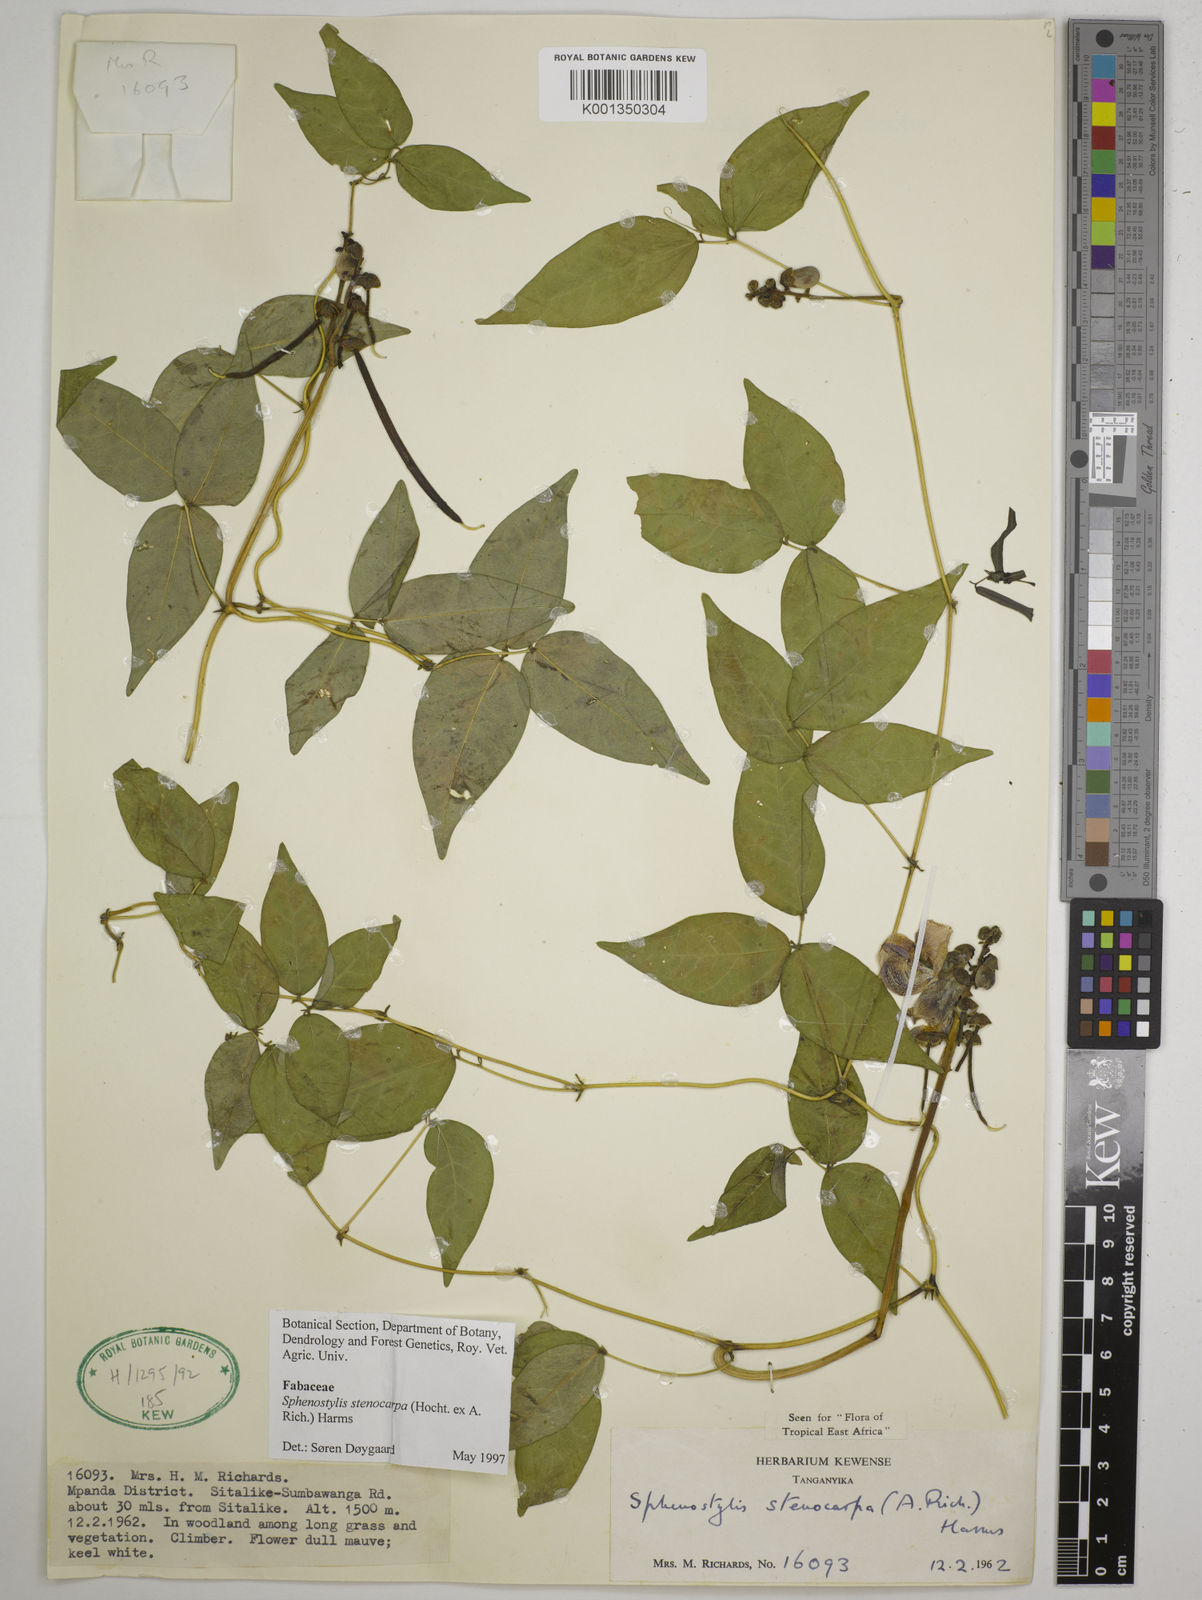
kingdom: Plantae
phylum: Tracheophyta
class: Magnoliopsida
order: Fabales
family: Fabaceae
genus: Sphenostylis
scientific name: Sphenostylis stenocarpa
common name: Yam-pea
